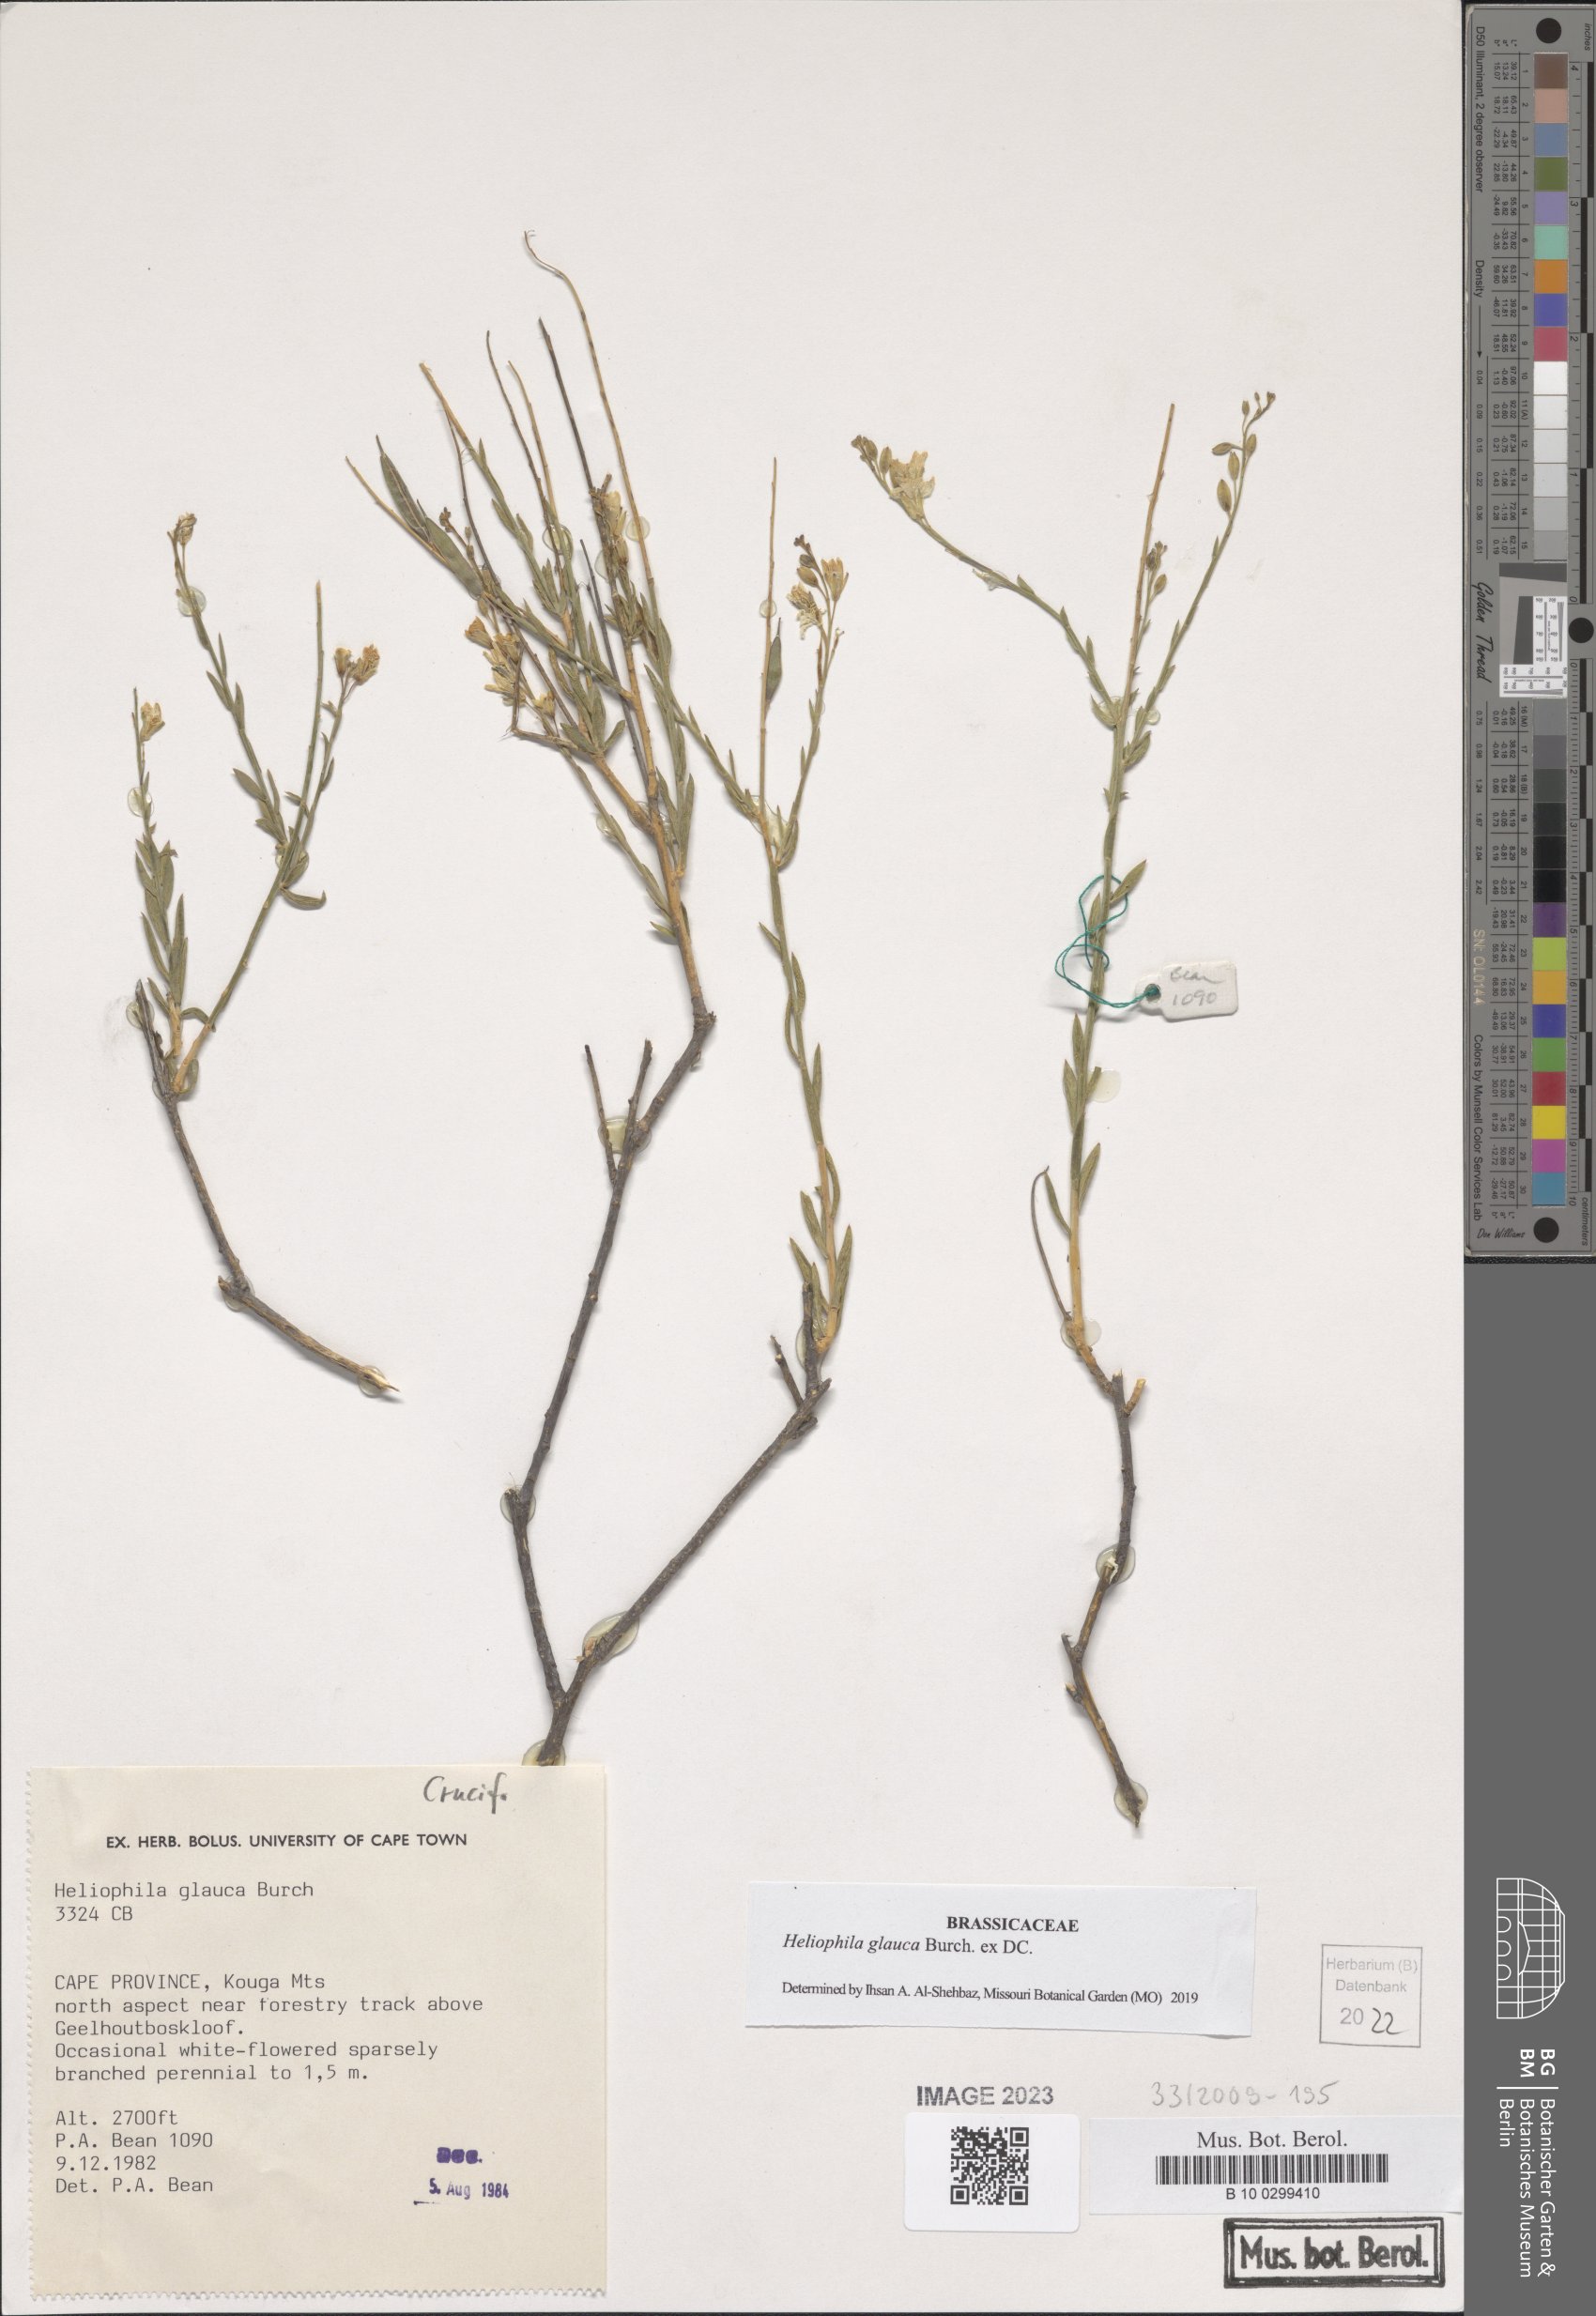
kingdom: Plantae
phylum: Tracheophyta
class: Magnoliopsida
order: Brassicales
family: Brassicaceae
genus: Heliophila
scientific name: Heliophila glauca
